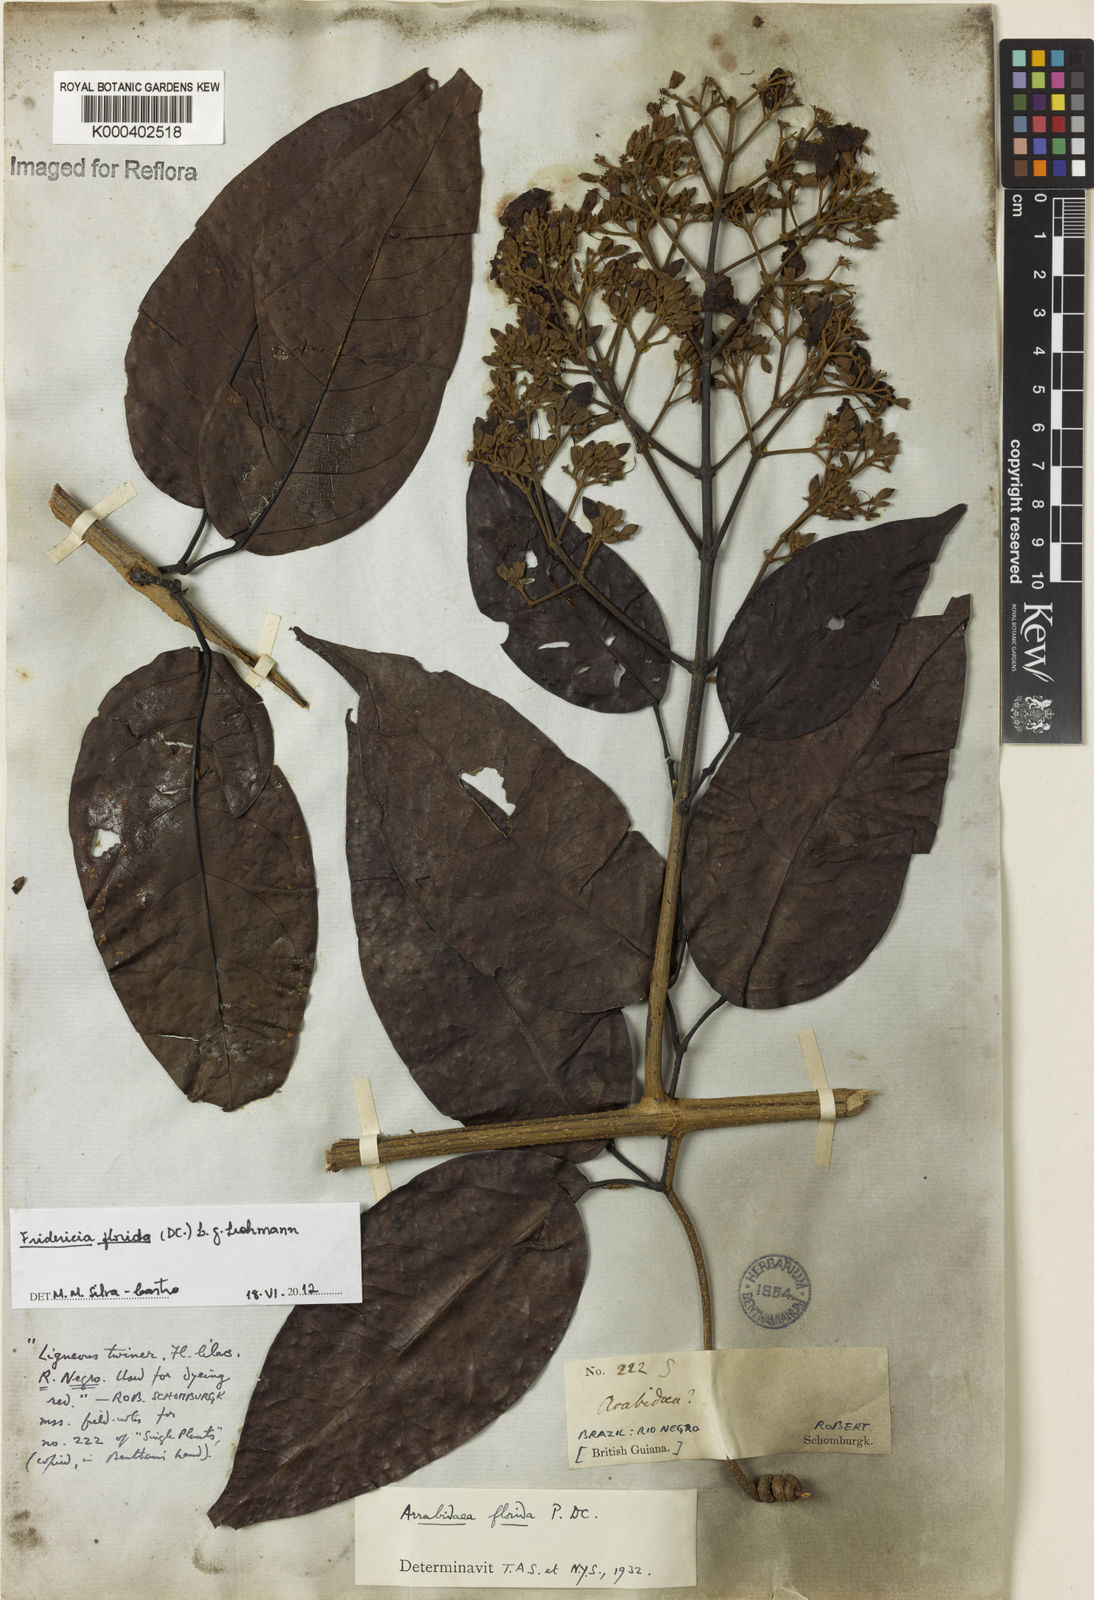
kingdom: Plantae
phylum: Tracheophyta
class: Magnoliopsida
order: Lamiales
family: Bignoniaceae
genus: Fridericia
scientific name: Fridericia florida
